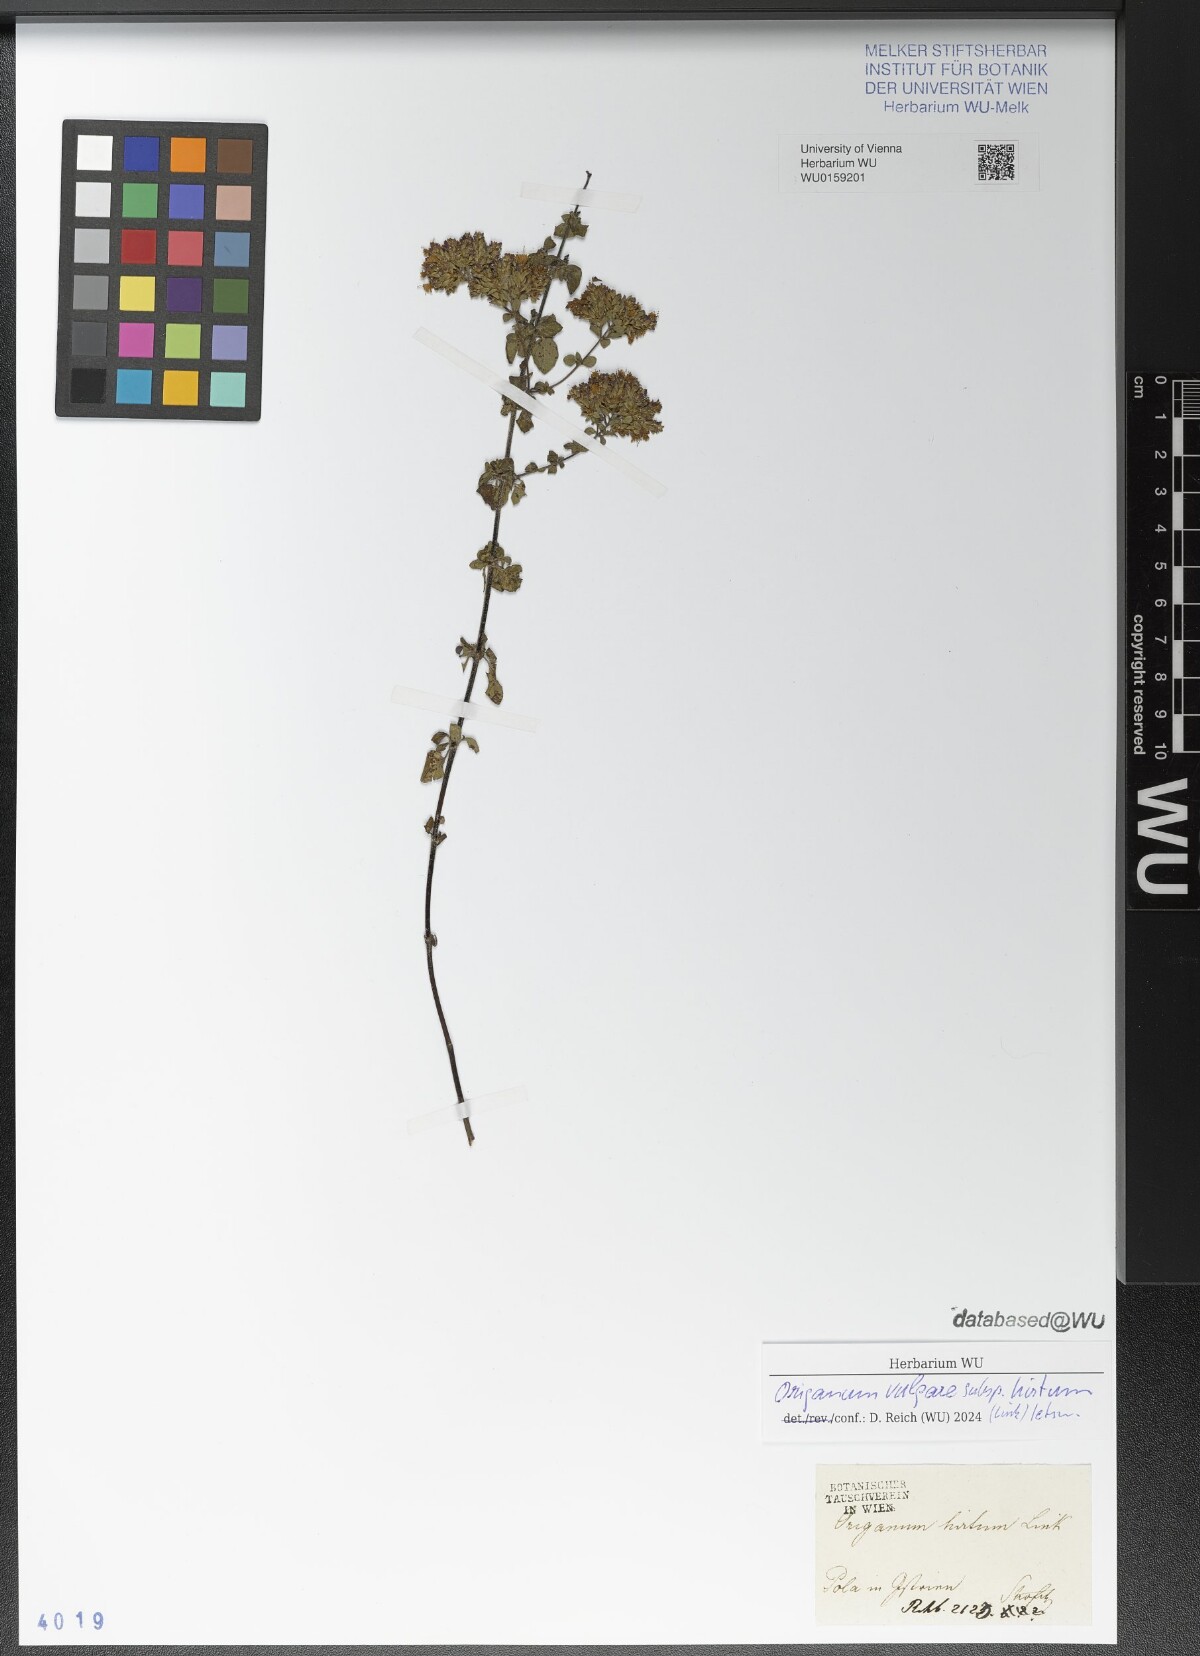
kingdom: Plantae
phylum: Tracheophyta
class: Magnoliopsida
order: Lamiales
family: Lamiaceae
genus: Origanum
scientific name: Origanum vulgare
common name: Wild marjoram
